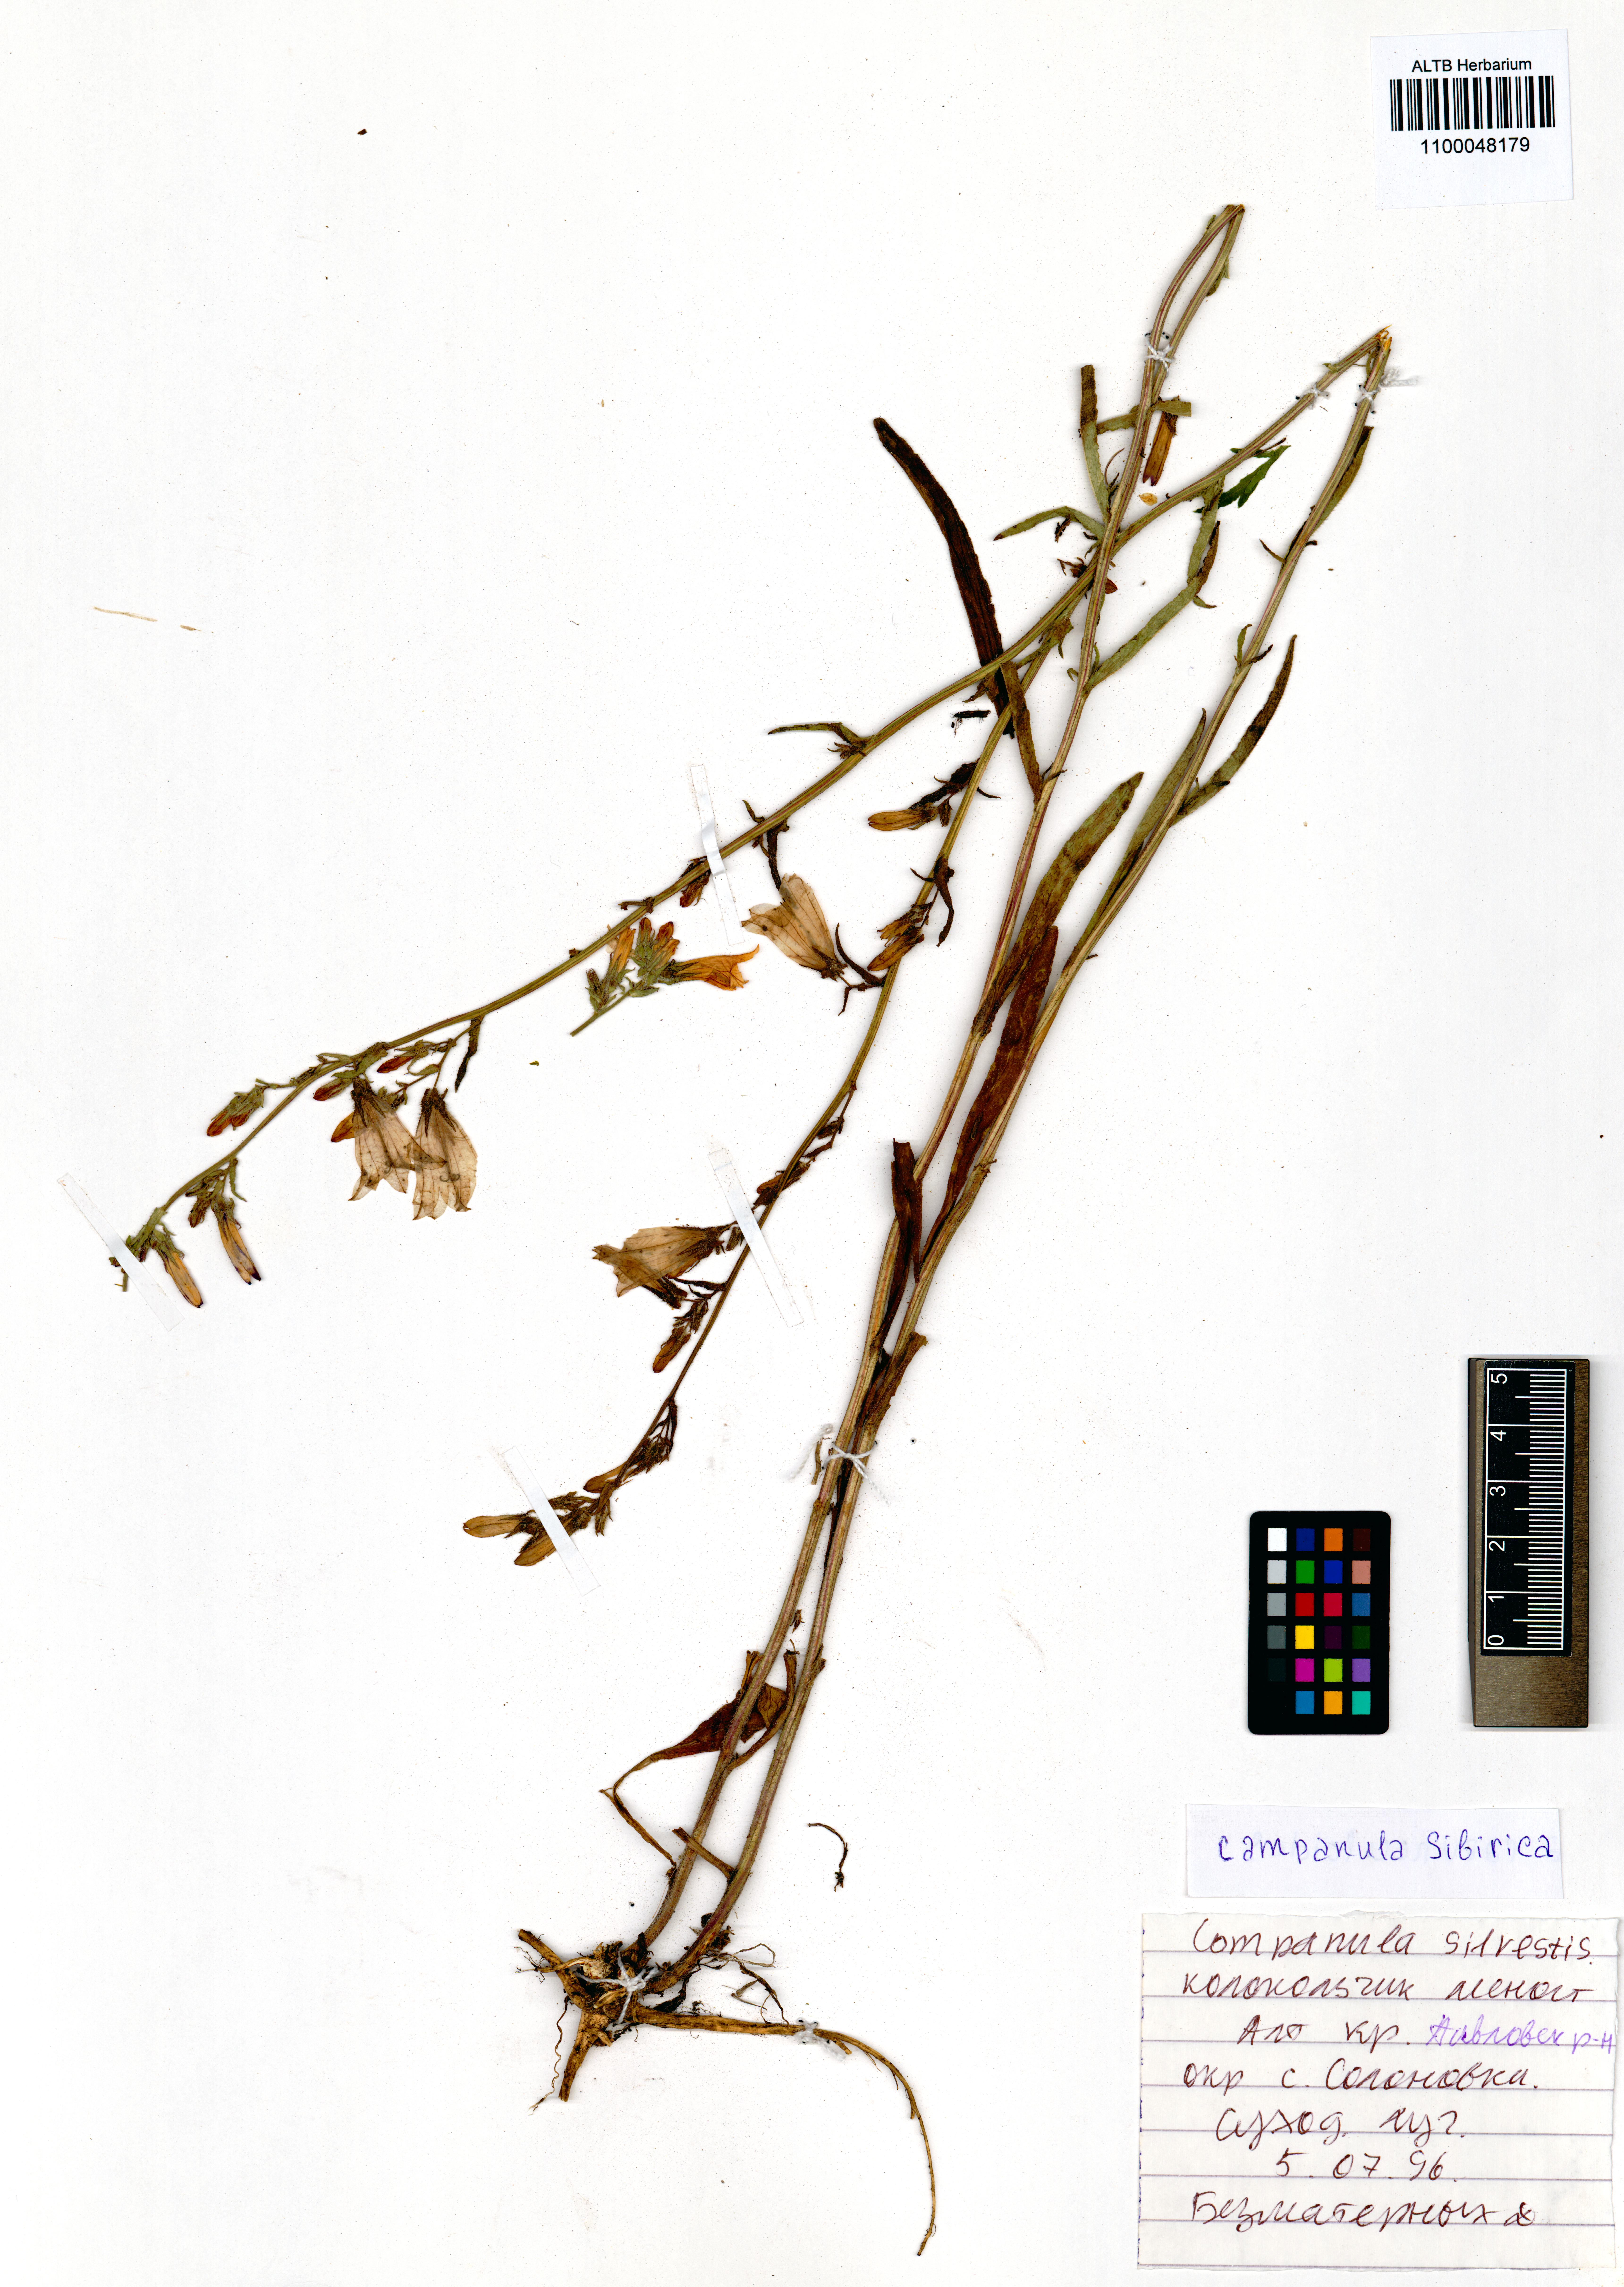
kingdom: Plantae
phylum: Tracheophyta
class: Magnoliopsida
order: Asterales
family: Campanulaceae
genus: Campanula
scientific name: Campanula sibirica
